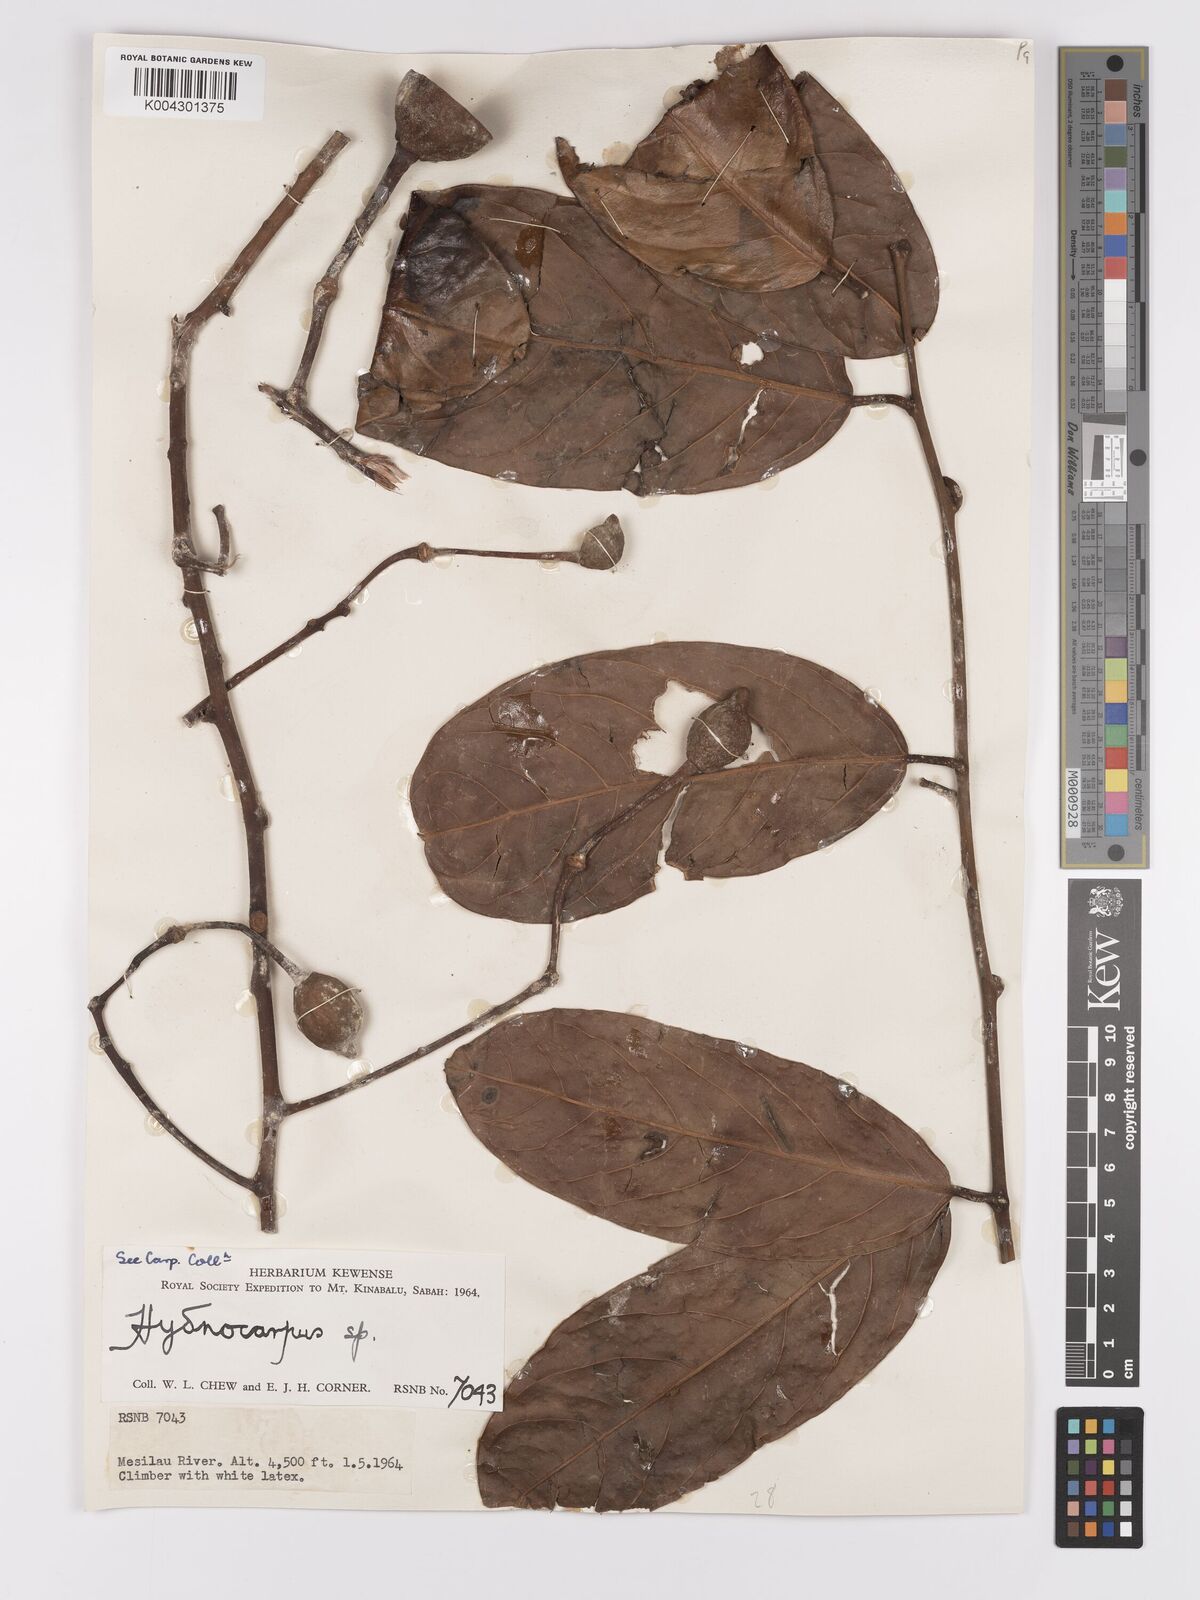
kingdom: Plantae
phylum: Tracheophyta
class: Magnoliopsida
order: Malpighiales
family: Achariaceae
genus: Hydnocarpus
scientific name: Hydnocarpus
